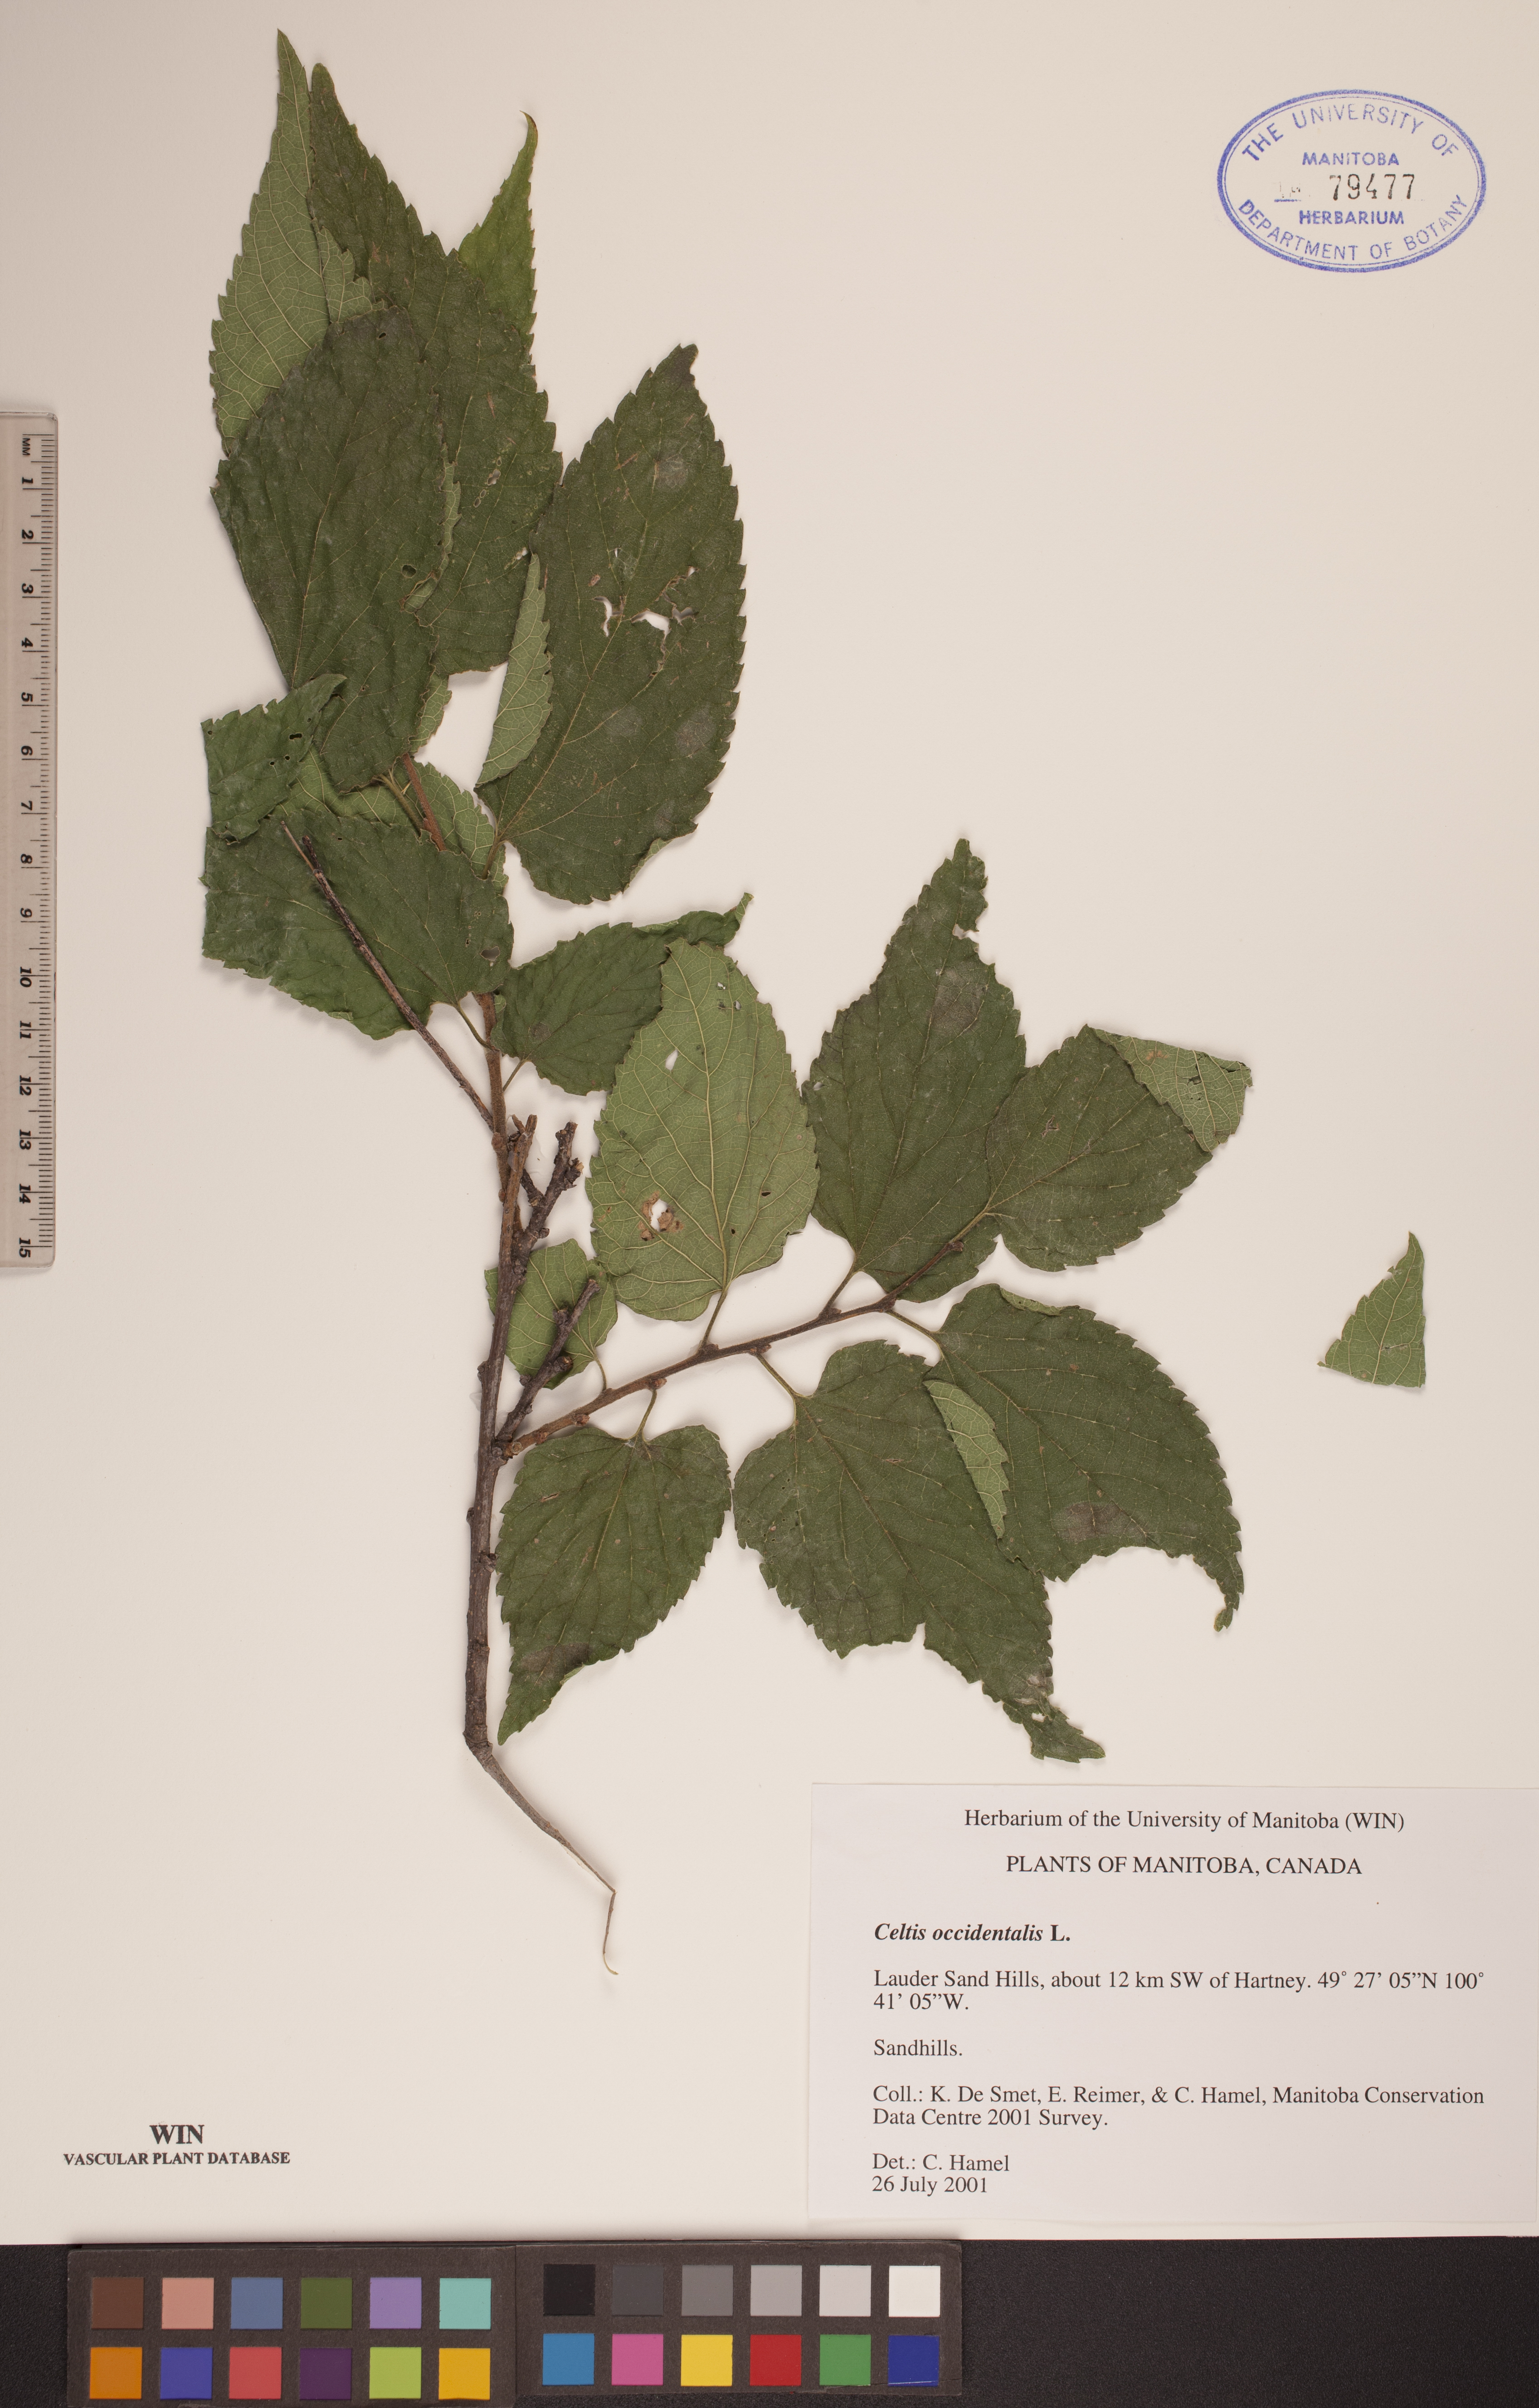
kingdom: Plantae
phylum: Tracheophyta
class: Magnoliopsida
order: Rosales
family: Cannabaceae
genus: Celtis
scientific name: Celtis occidentalis
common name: Common hackberry
